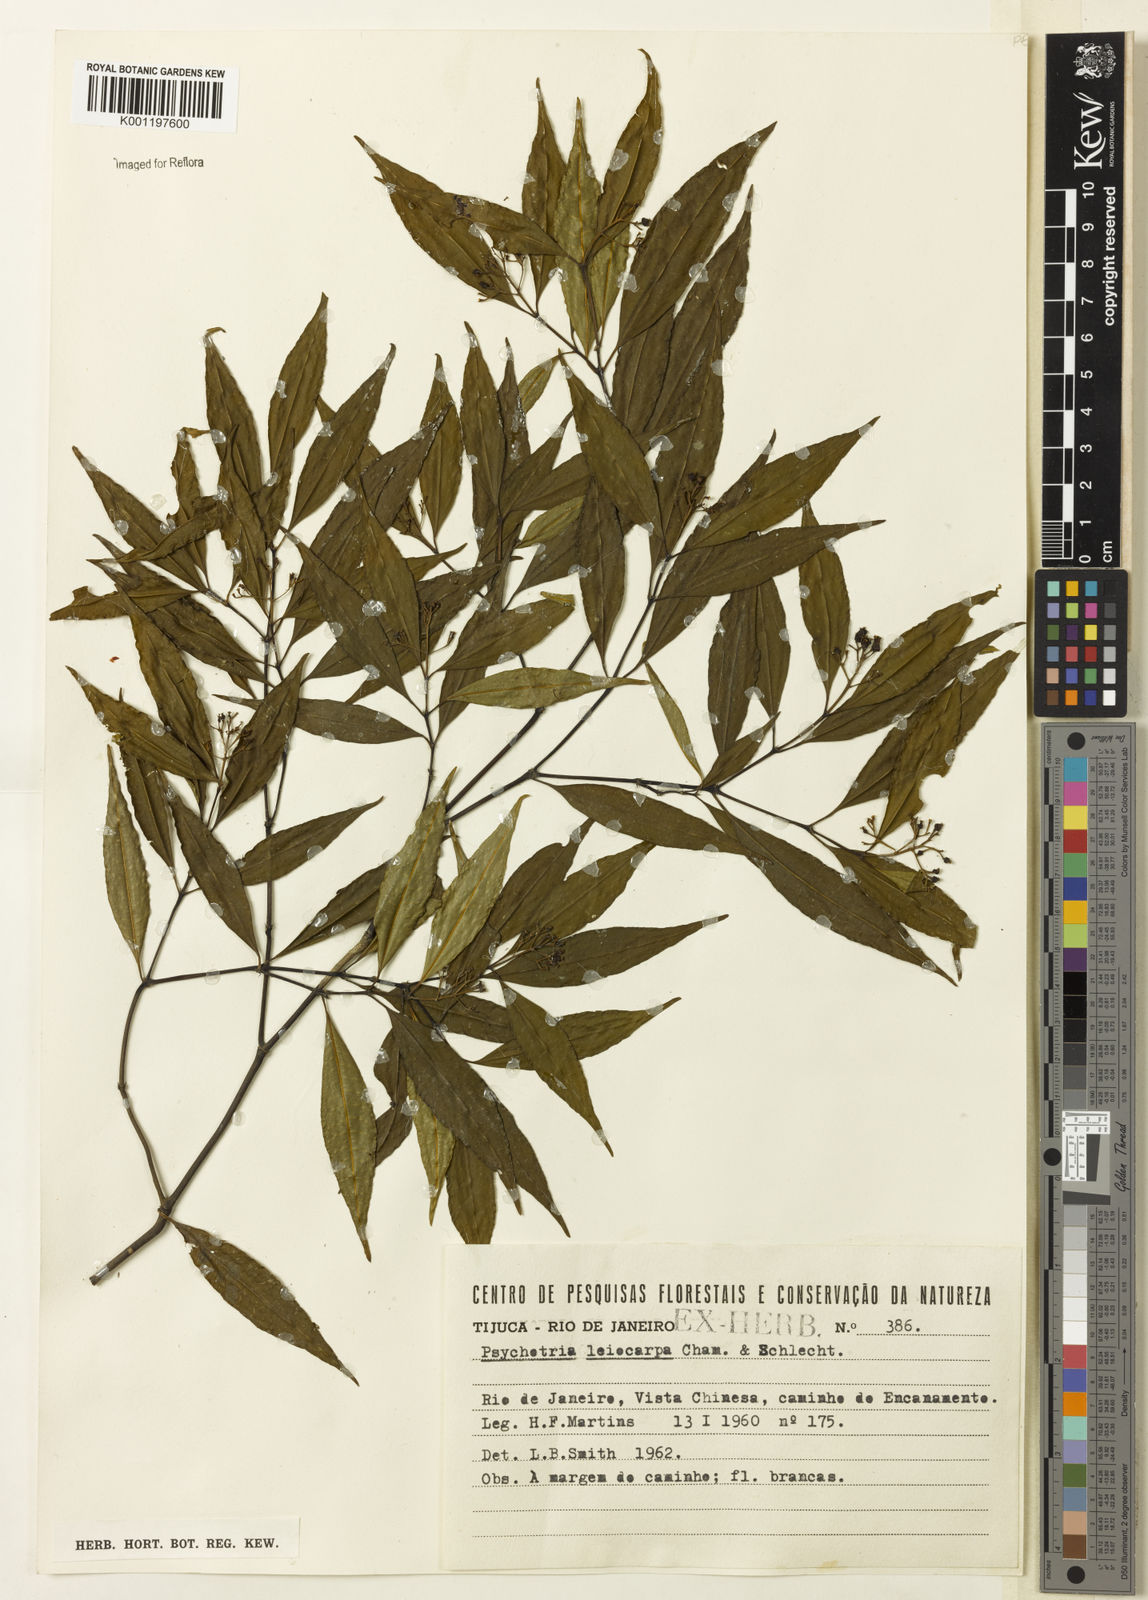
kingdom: Plantae
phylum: Tracheophyta
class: Magnoliopsida
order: Gentianales
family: Rubiaceae
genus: Psychotria
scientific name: Psychotria leiocarpa
